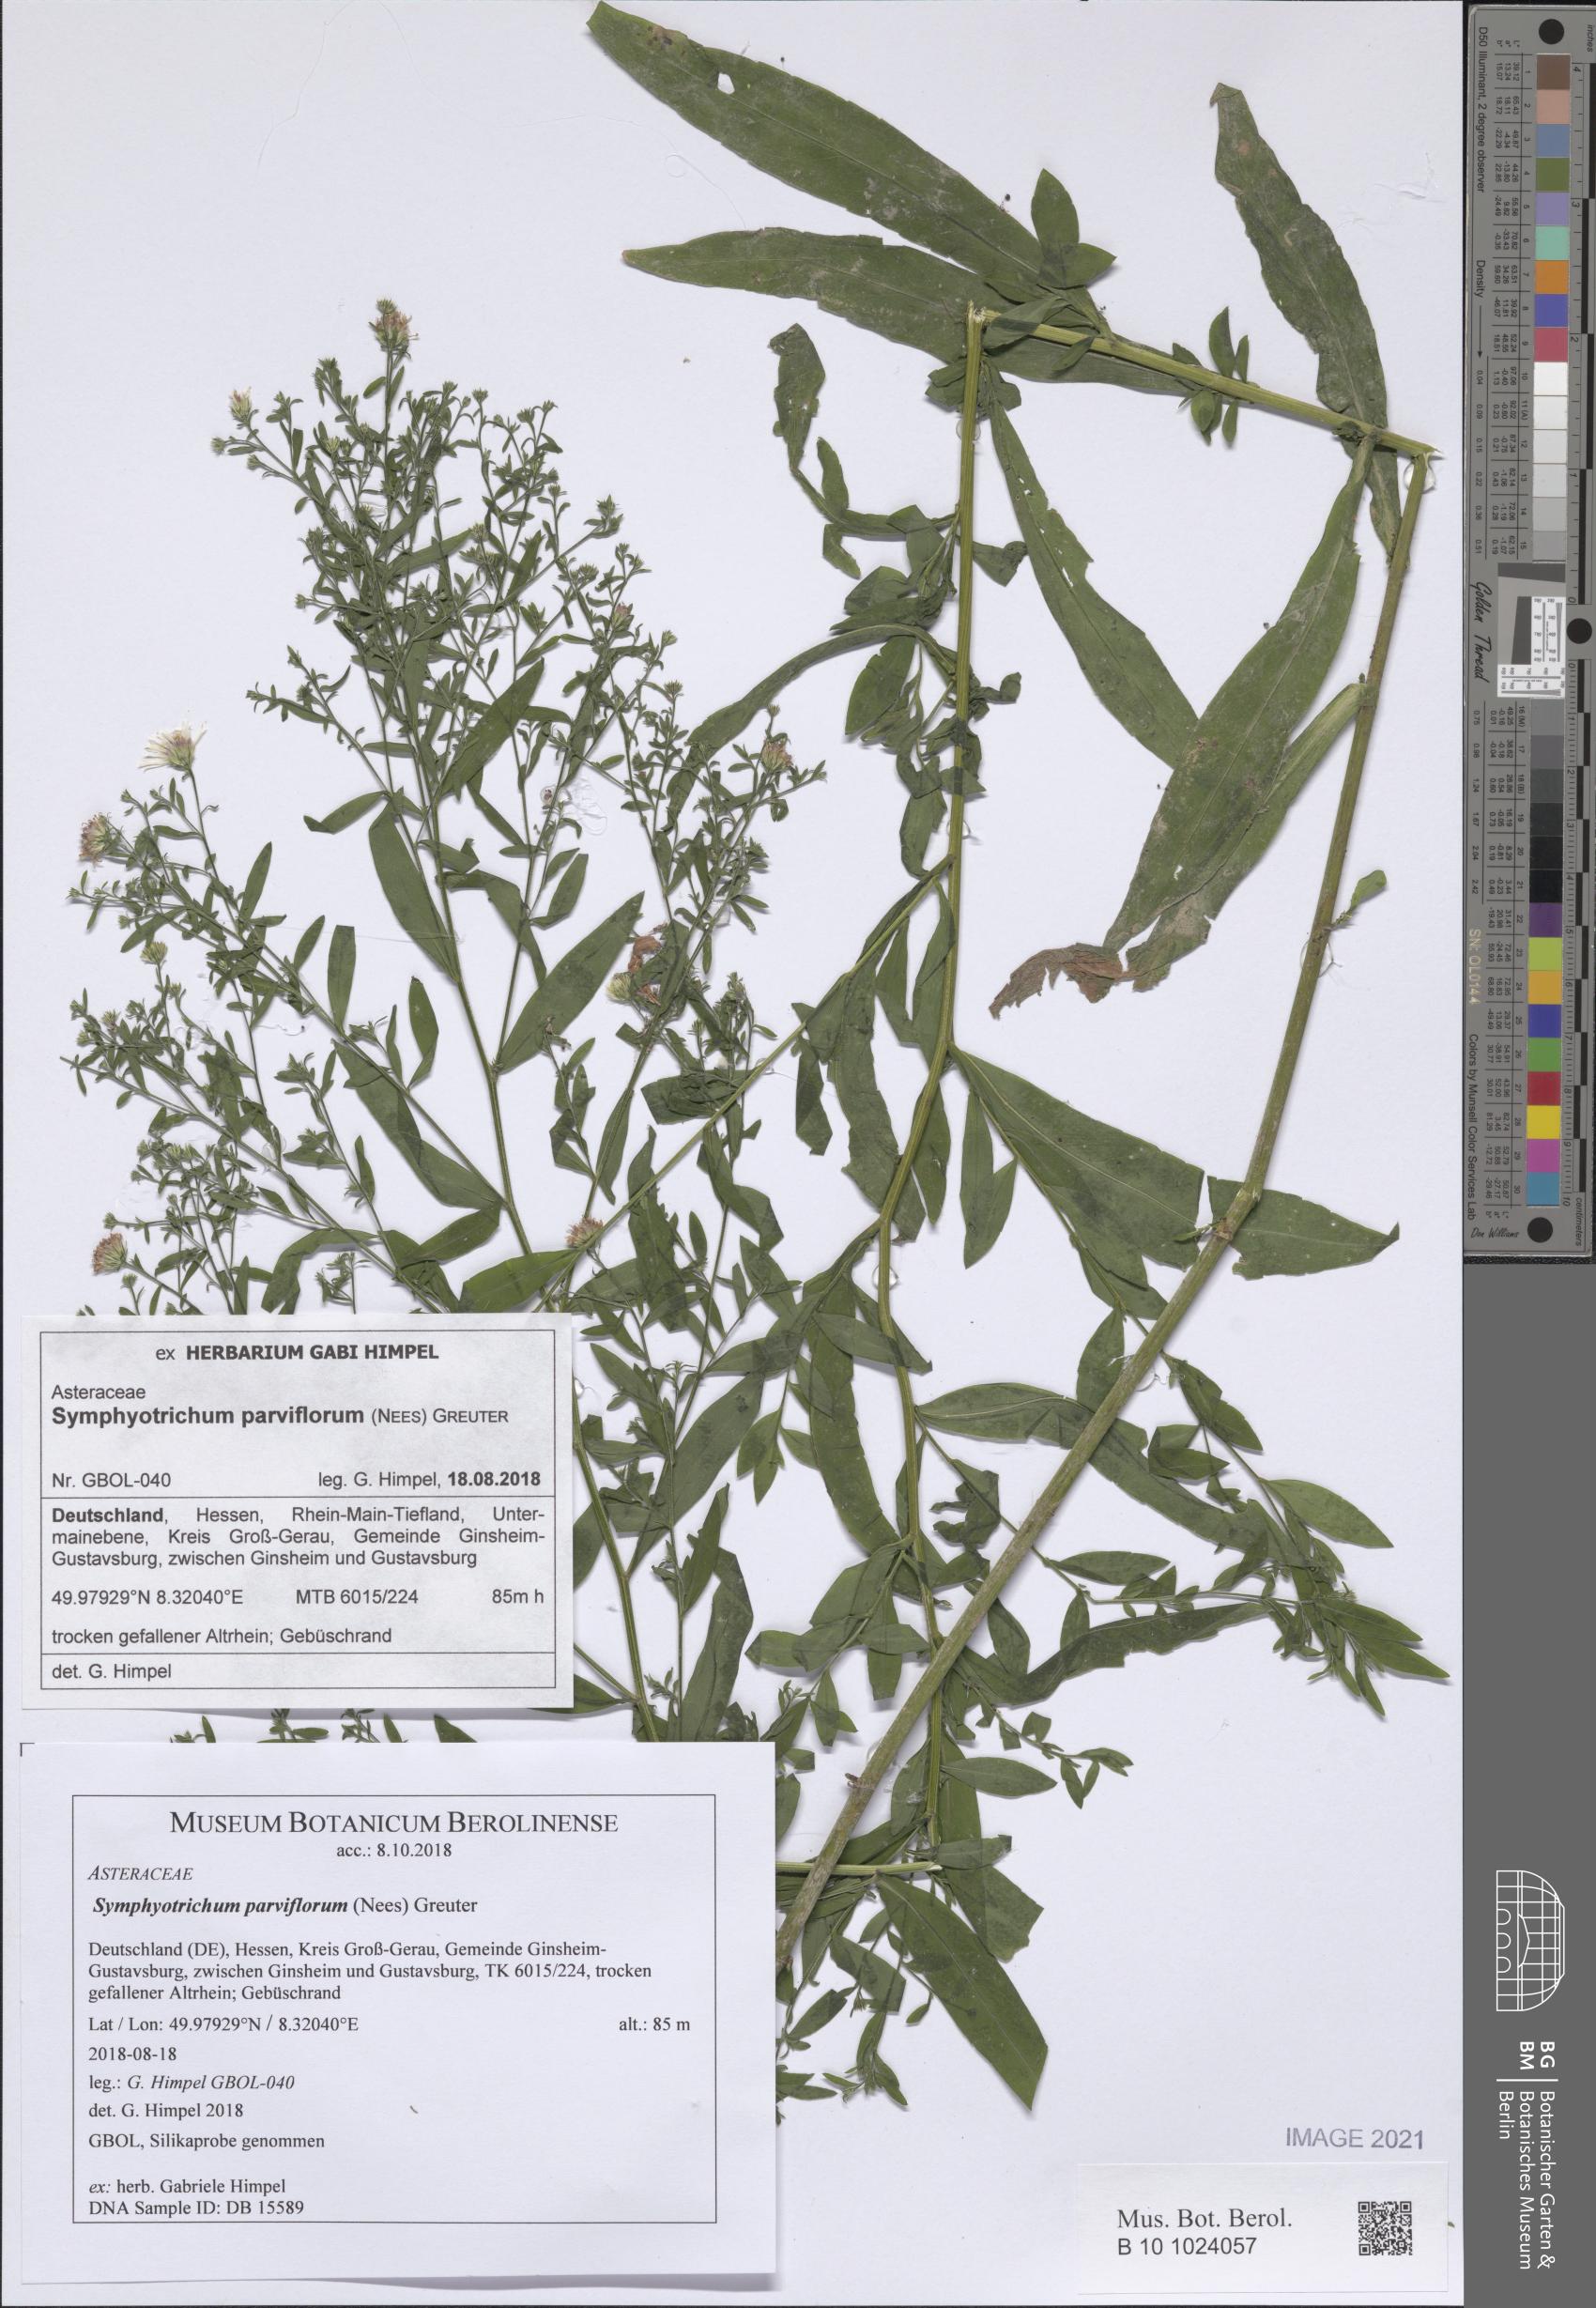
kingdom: Plantae
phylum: Tracheophyta
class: Magnoliopsida
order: Asterales
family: Asteraceae
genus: Symphyotrichum
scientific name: Symphyotrichum expansum
